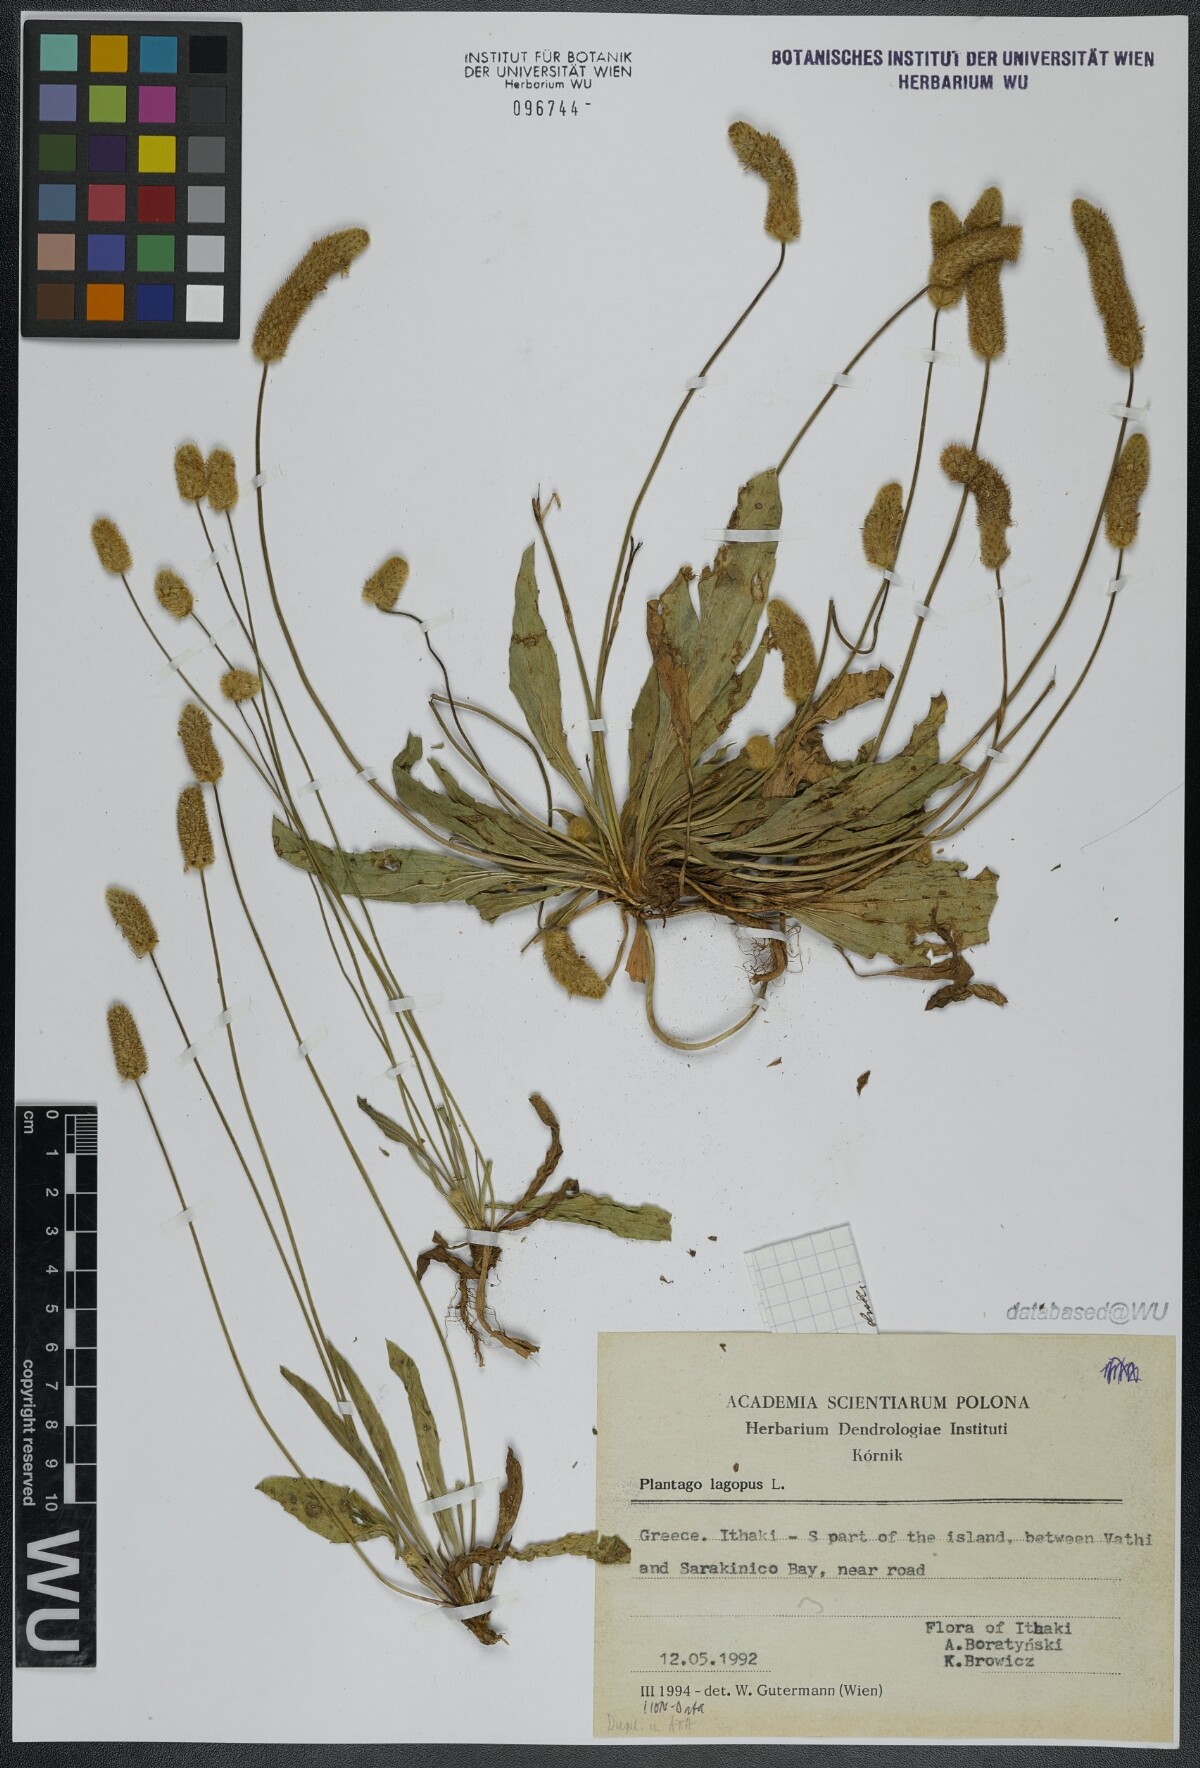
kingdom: Plantae
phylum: Tracheophyta
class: Magnoliopsida
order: Lamiales
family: Plantaginaceae
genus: Plantago
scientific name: Plantago lagopus
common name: Hare-foot plantain
